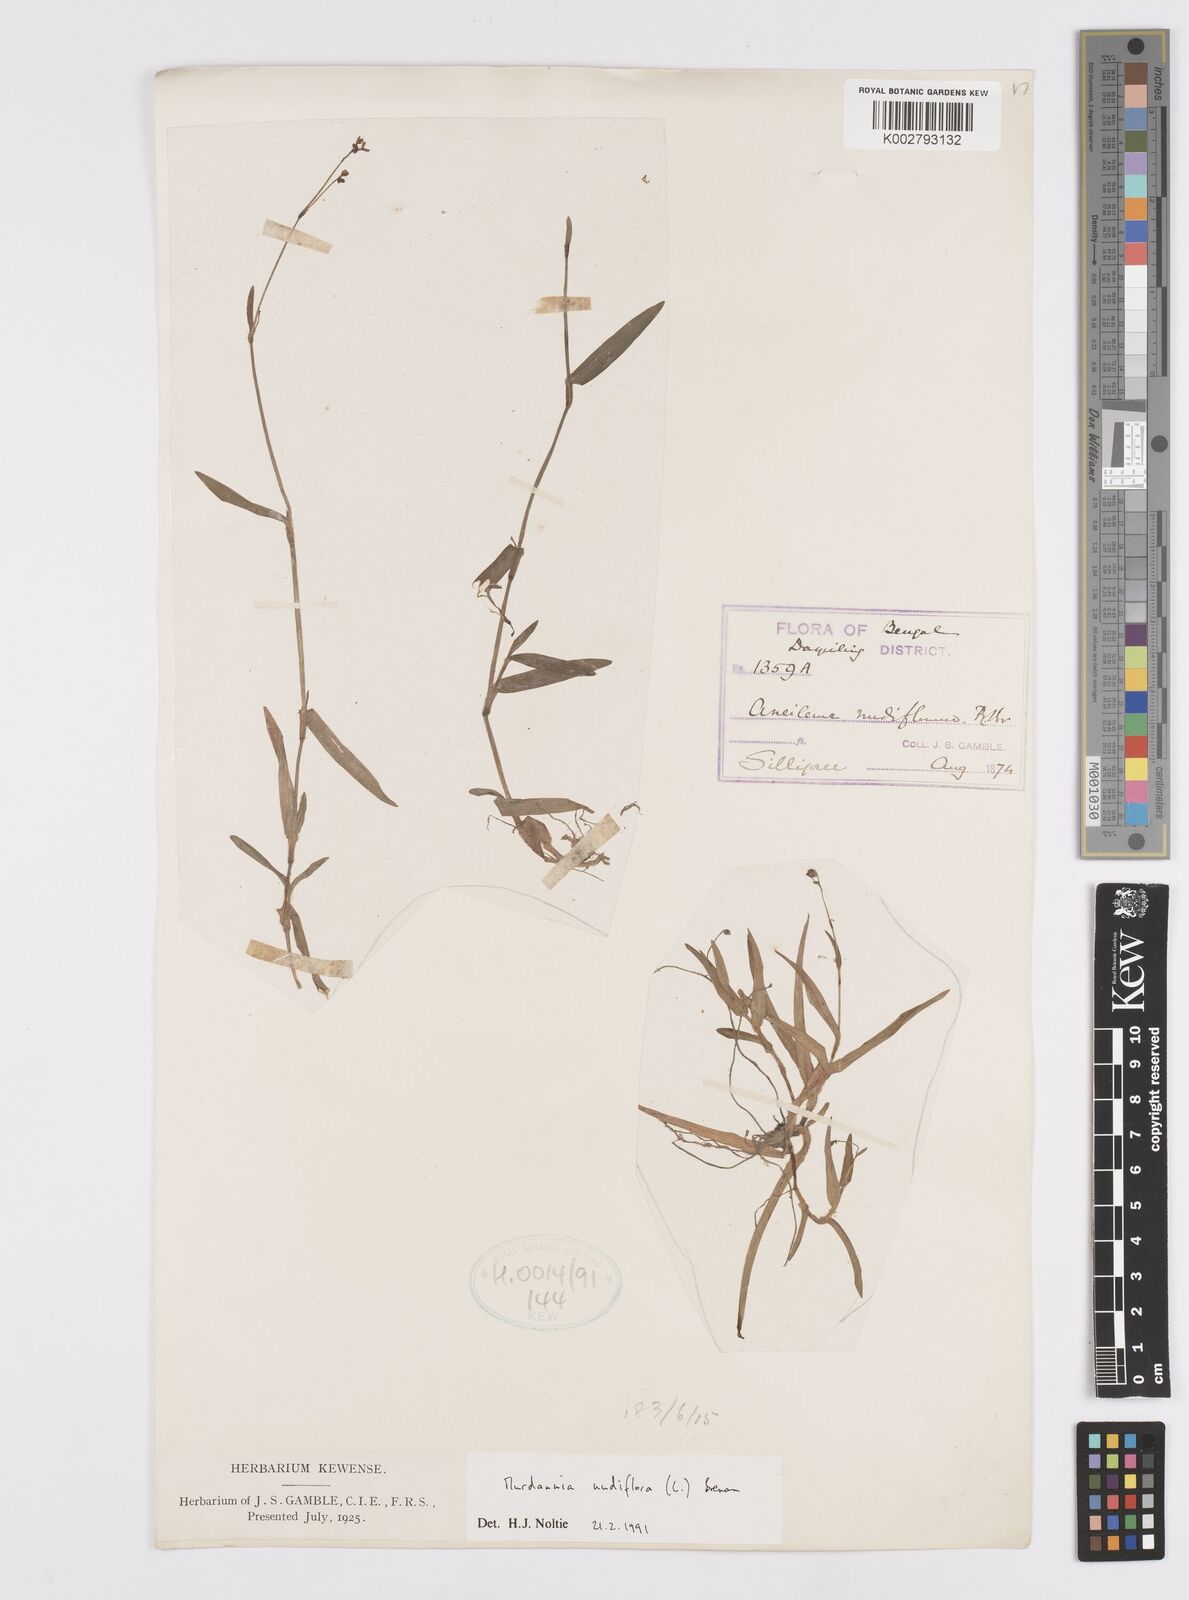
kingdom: Plantae
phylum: Tracheophyta
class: Liliopsida
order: Commelinales
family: Commelinaceae
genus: Murdannia
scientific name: Murdannia nudiflora
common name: Nakedstem dewflower
